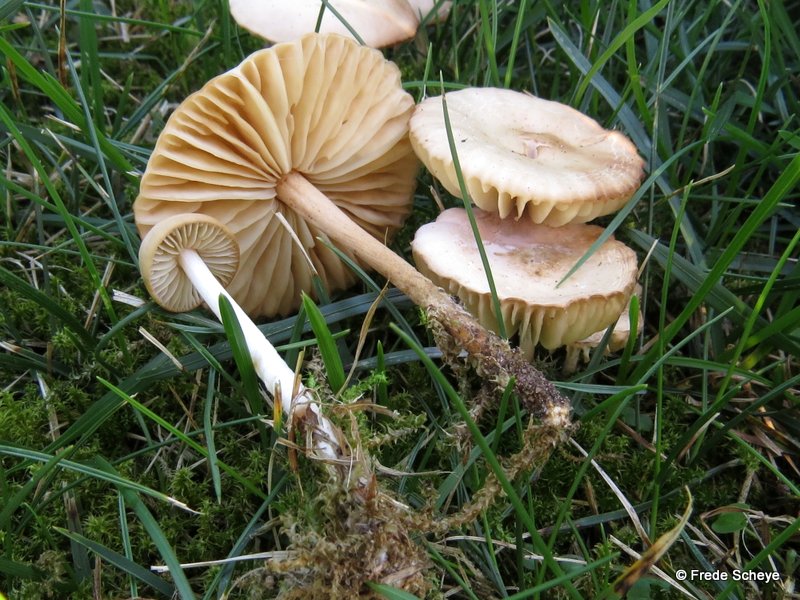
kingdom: Fungi
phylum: Basidiomycota
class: Agaricomycetes
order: Agaricales
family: Marasmiaceae
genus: Marasmius
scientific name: Marasmius oreades
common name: elledans-bruskhat
